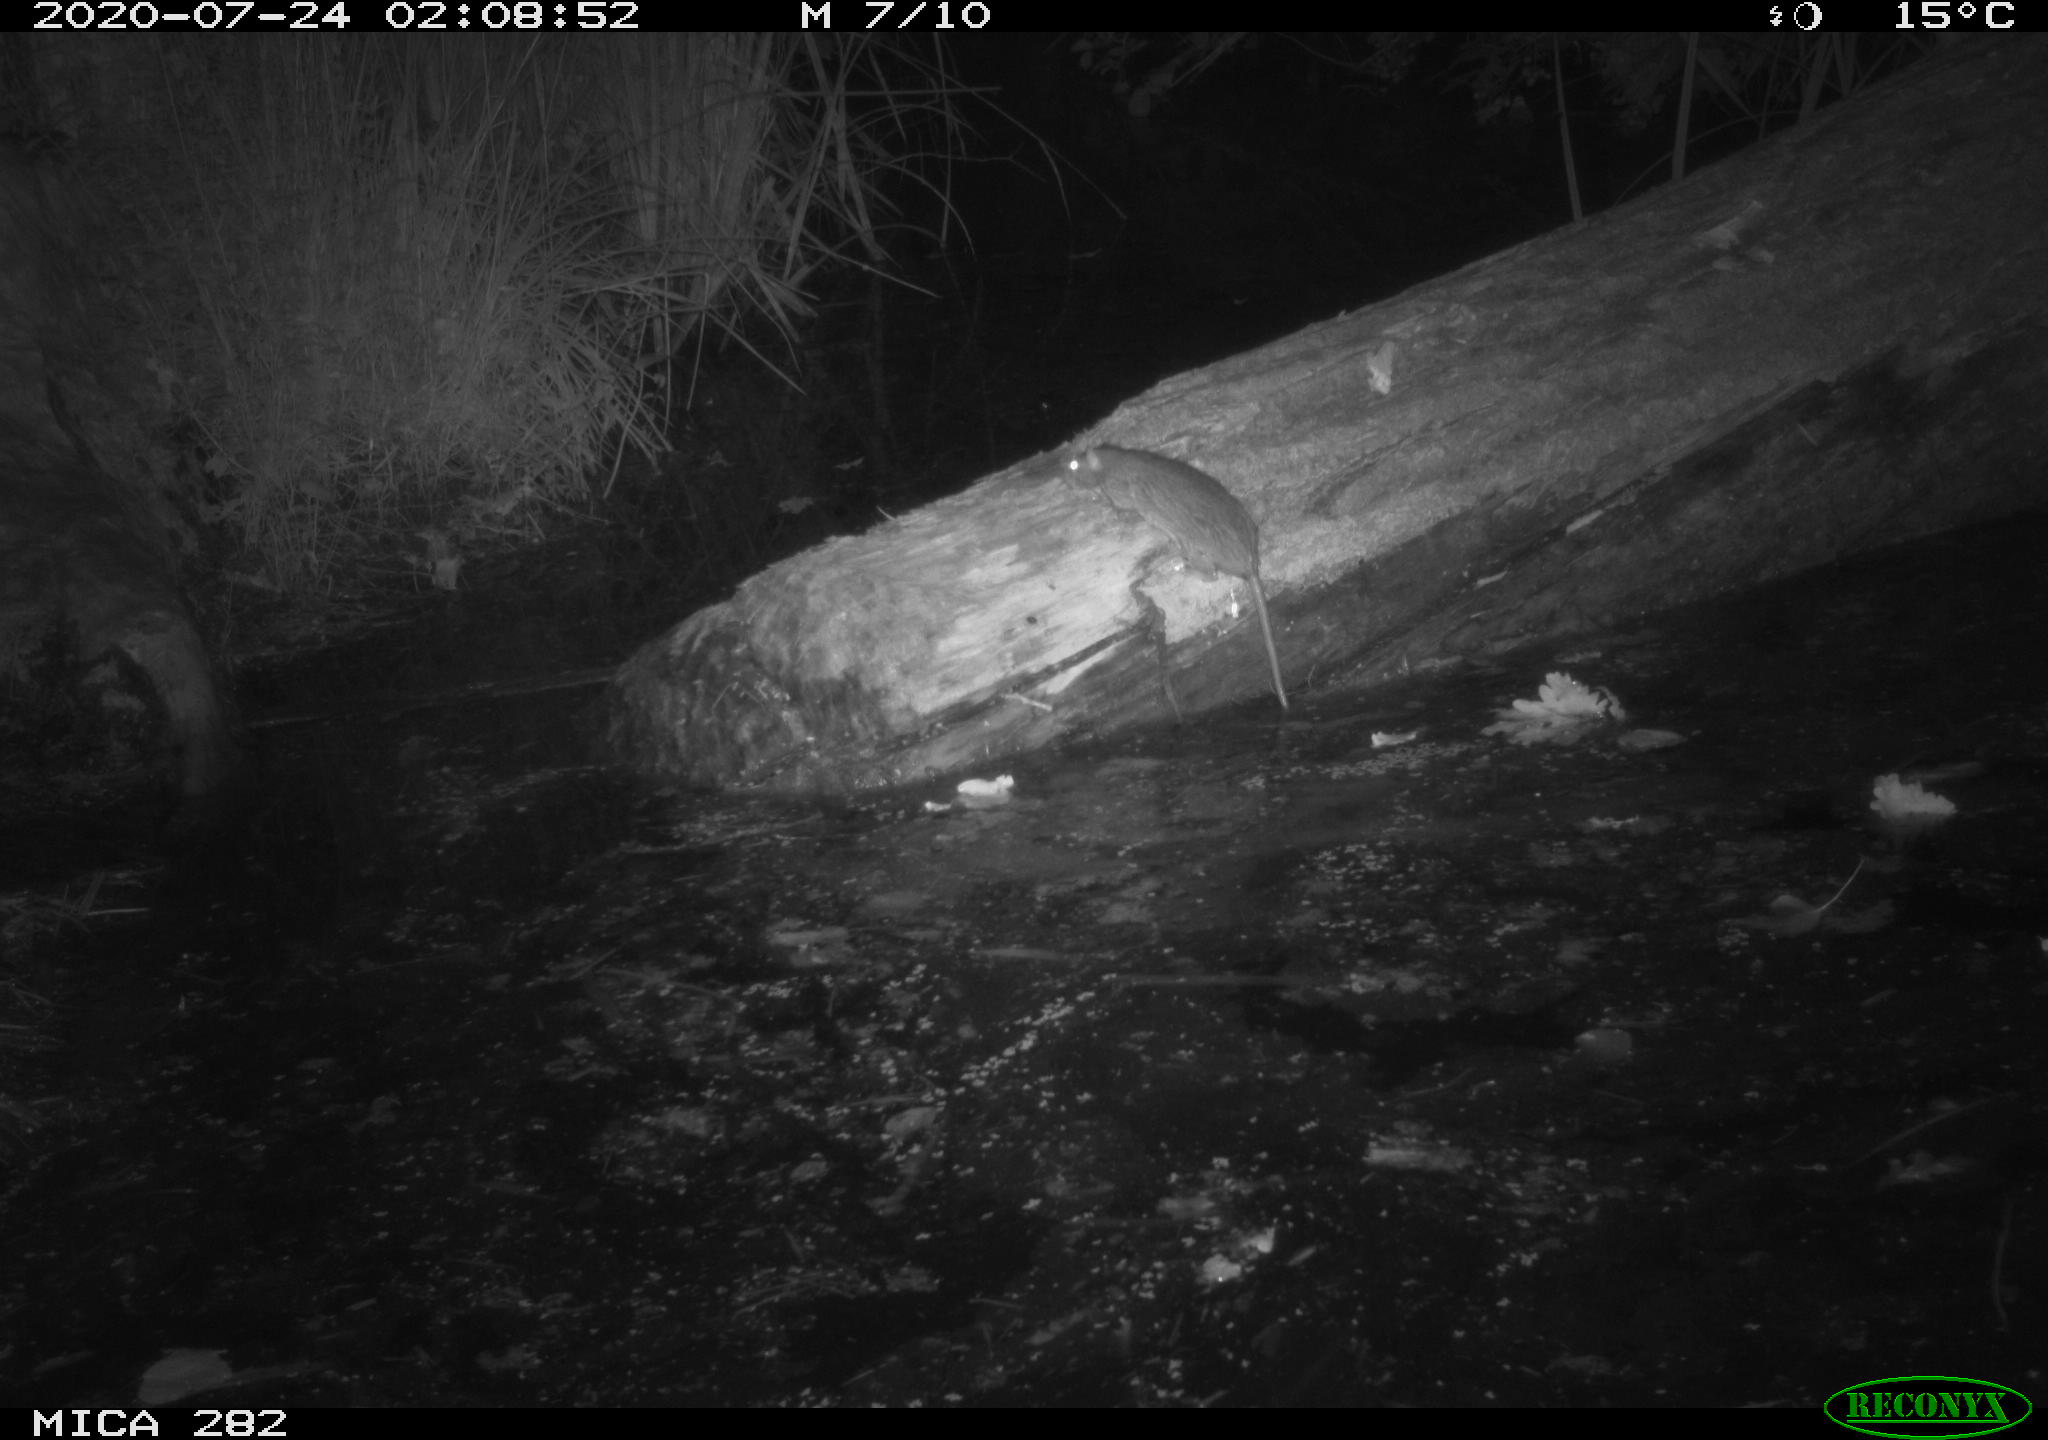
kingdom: Animalia
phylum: Chordata
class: Mammalia
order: Rodentia
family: Muridae
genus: Rattus
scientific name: Rattus norvegicus
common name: Brown rat
